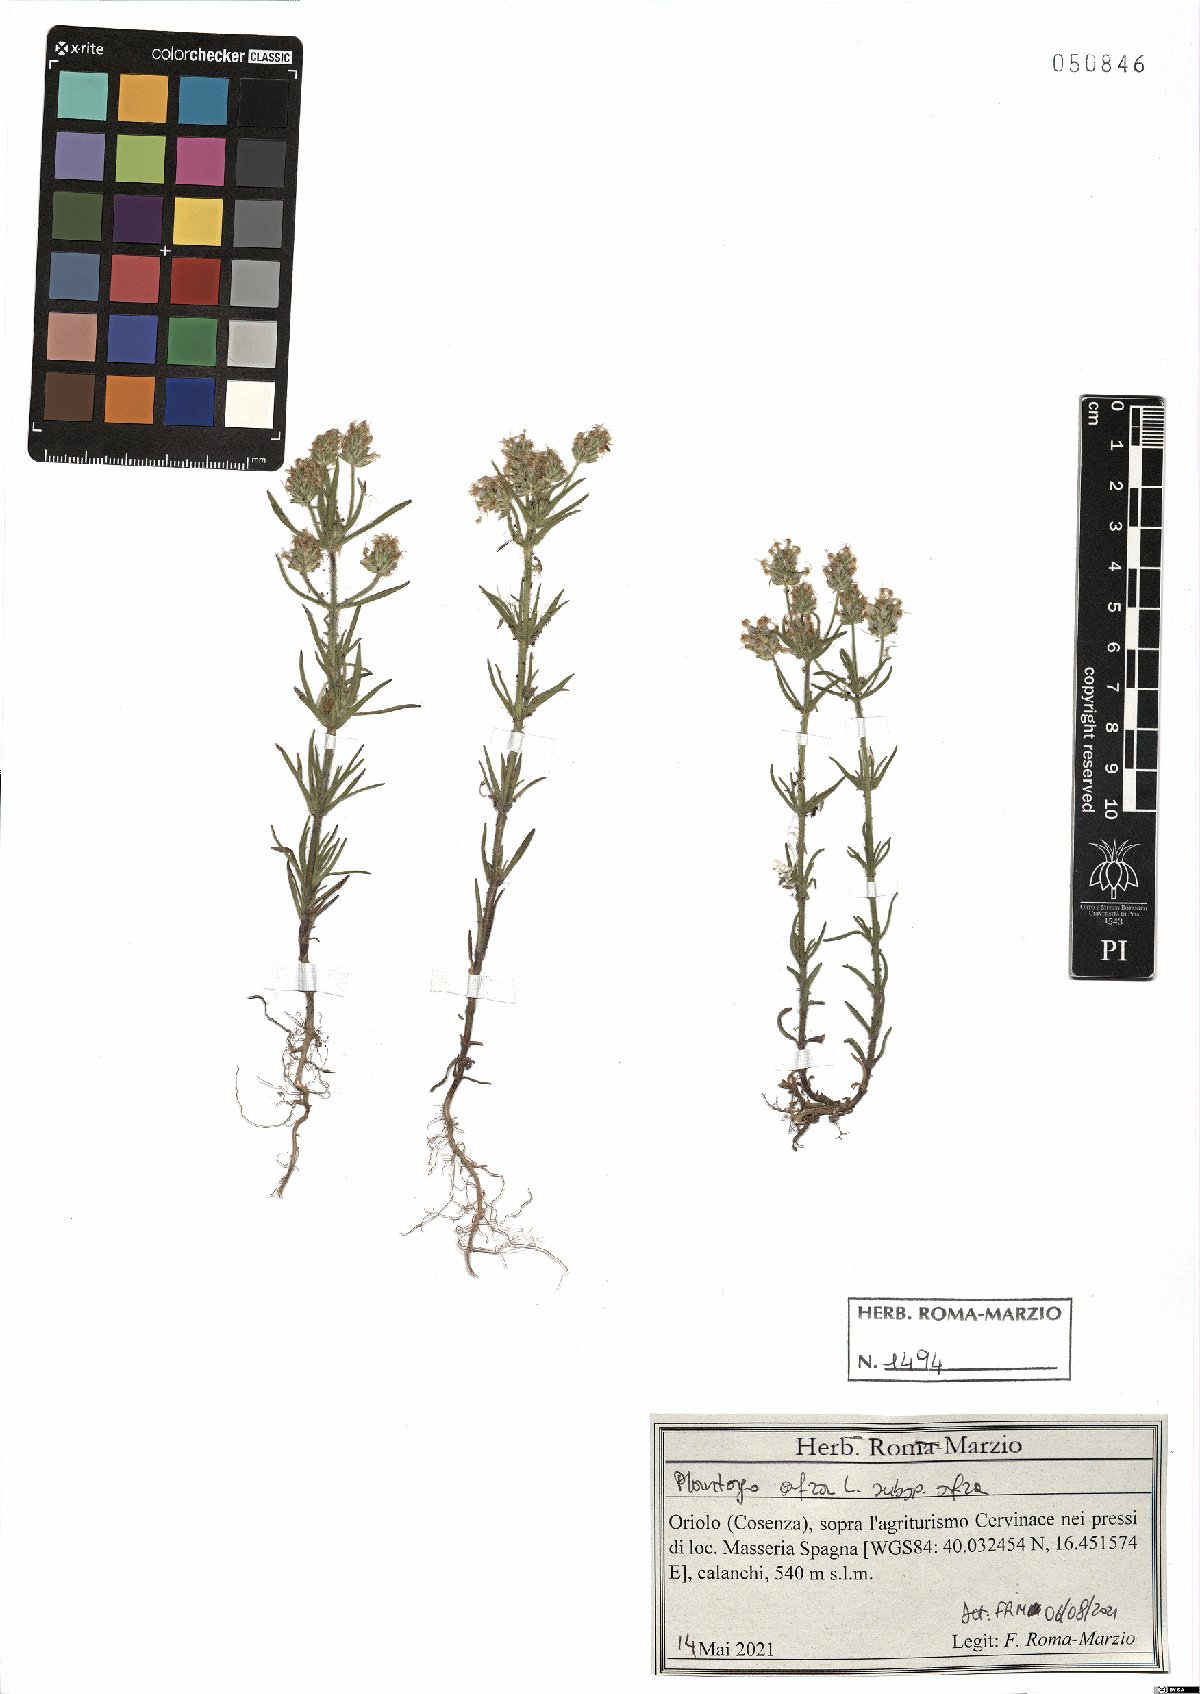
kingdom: Plantae
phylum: Tracheophyta
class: Magnoliopsida
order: Lamiales
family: Plantaginaceae
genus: Plantago
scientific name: Plantago afra
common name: Glandular plantain
